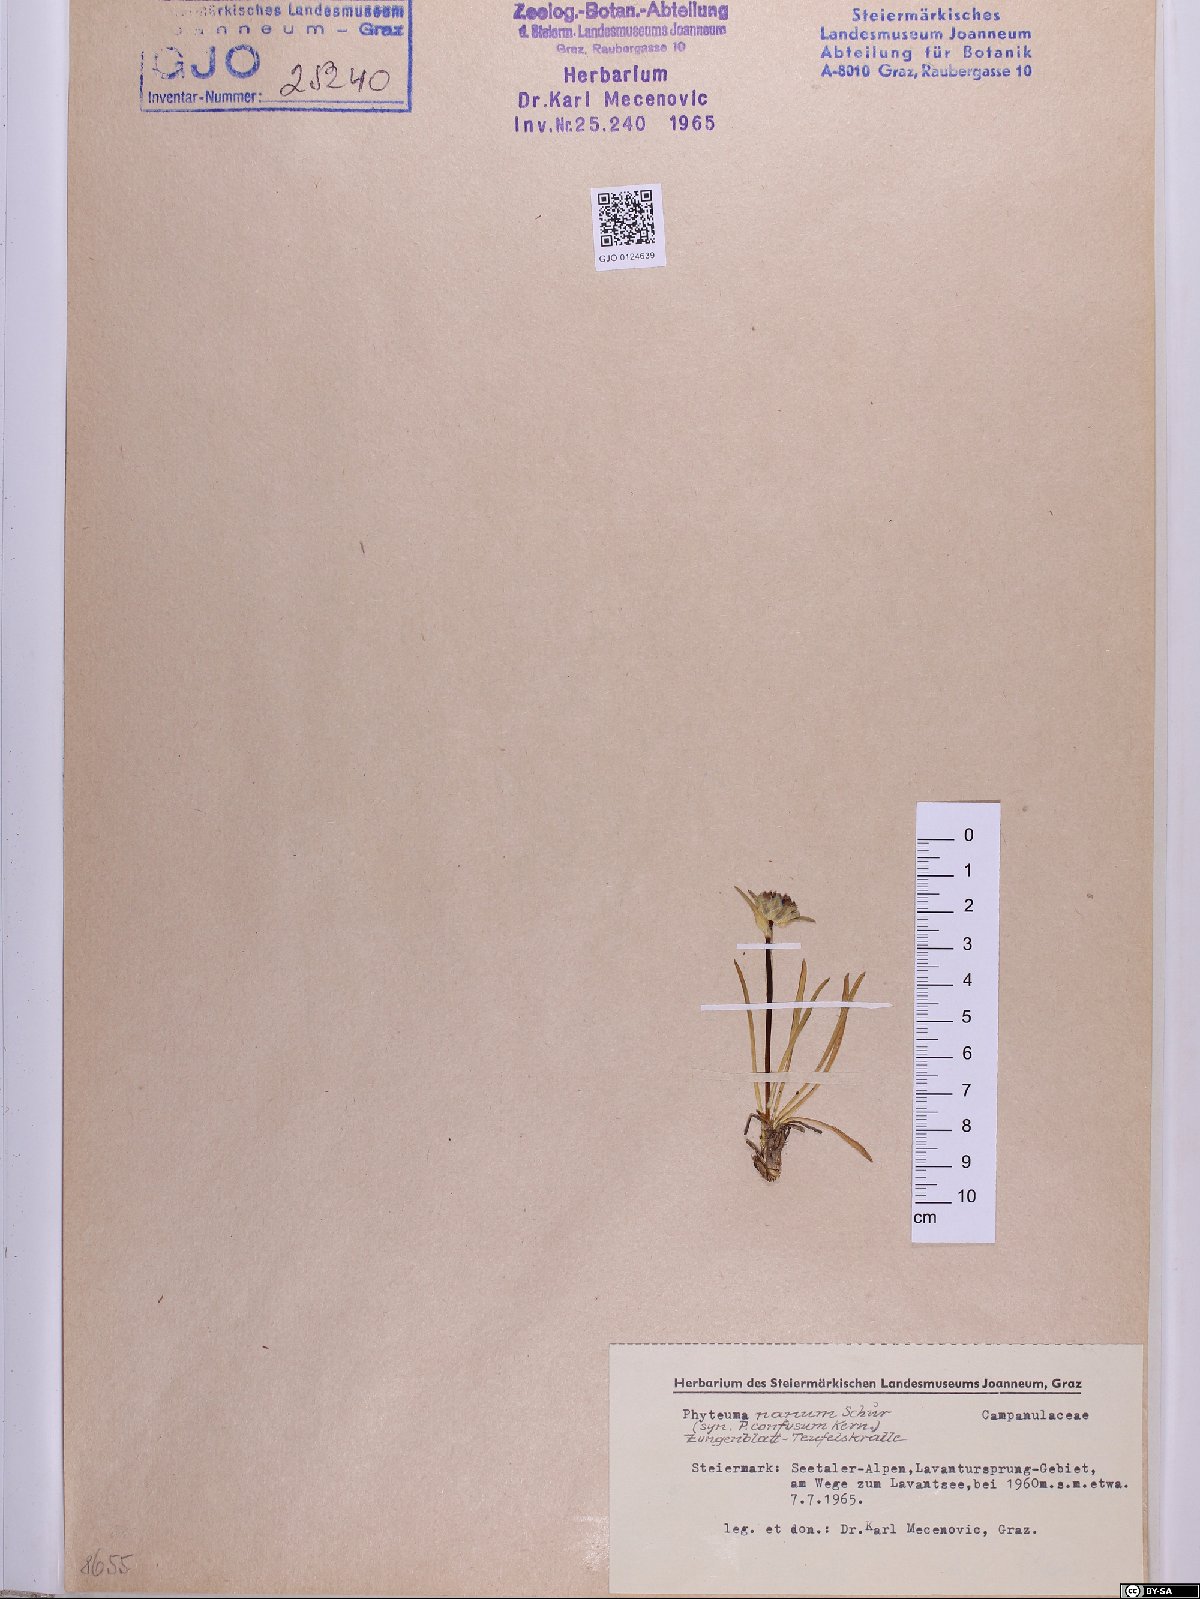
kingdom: Plantae
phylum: Tracheophyta
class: Magnoliopsida
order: Asterales
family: Campanulaceae
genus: Phyteuma
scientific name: Phyteuma globulariifolium
